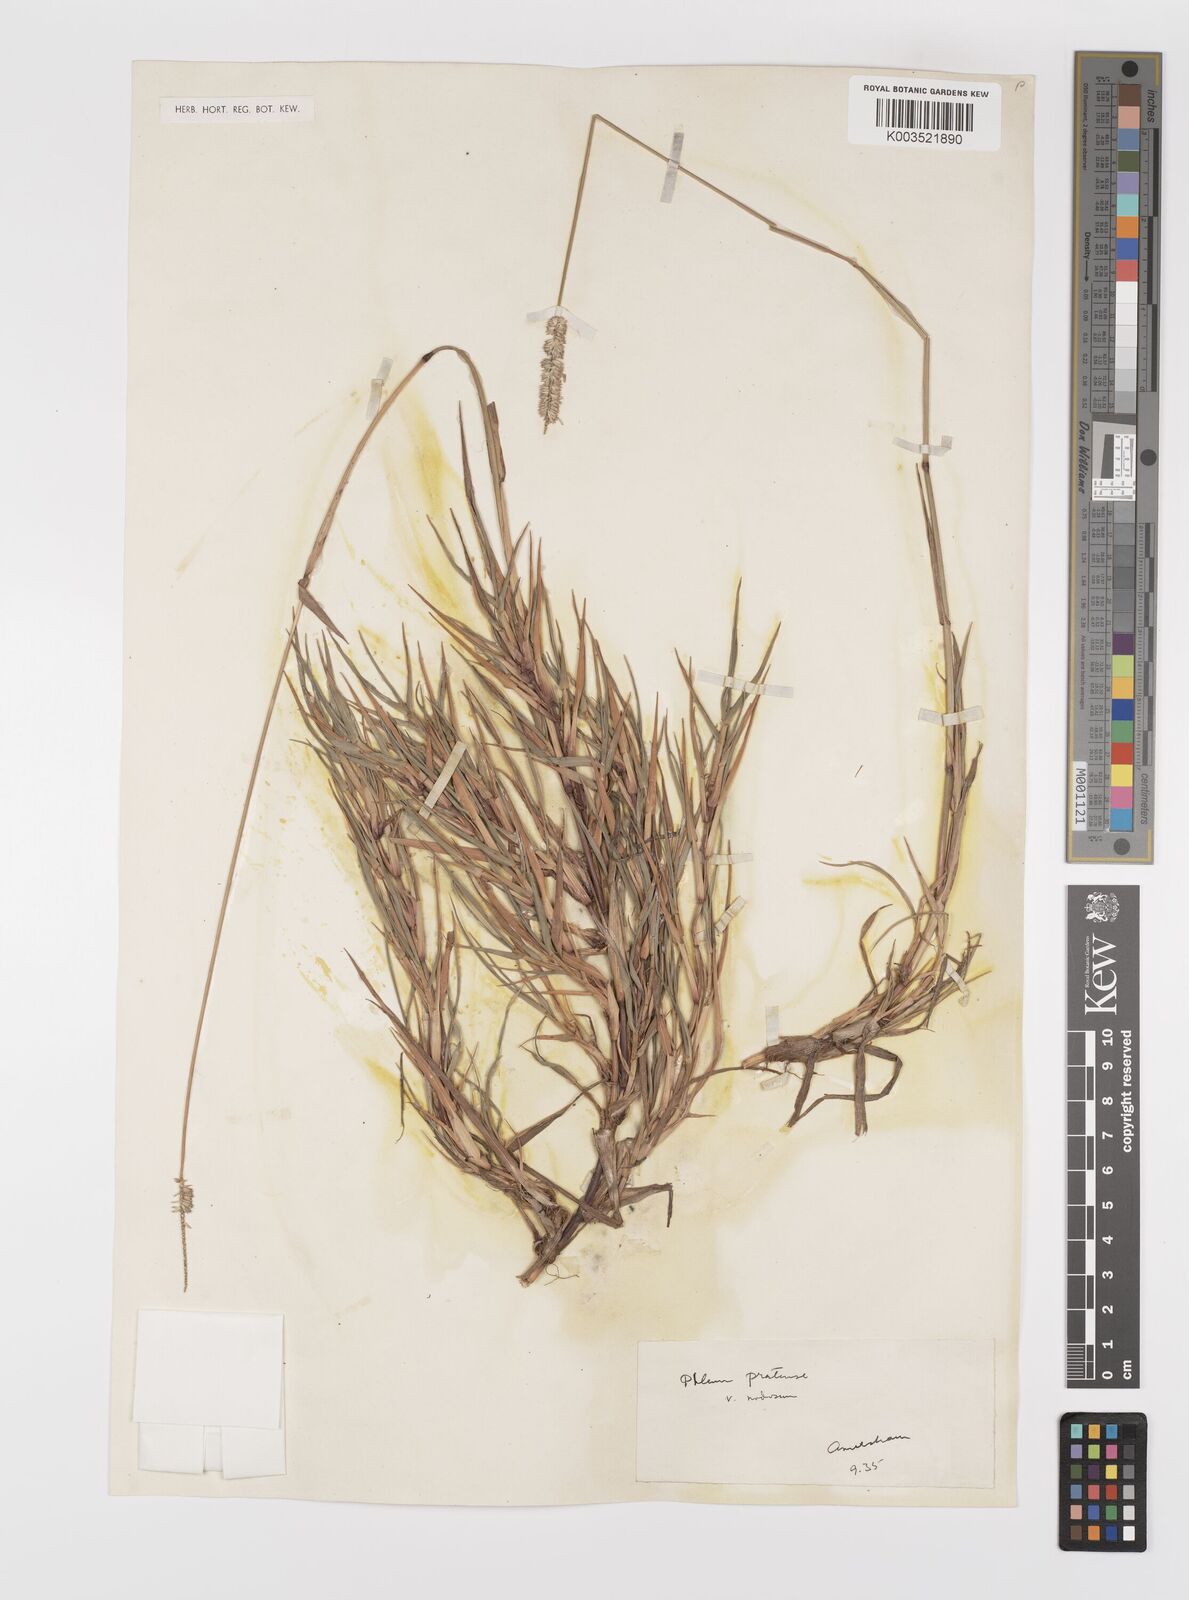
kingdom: Plantae
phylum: Tracheophyta
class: Liliopsida
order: Poales
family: Poaceae
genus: Phleum
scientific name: Phleum bertolonii
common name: Smaller cat's-tail
